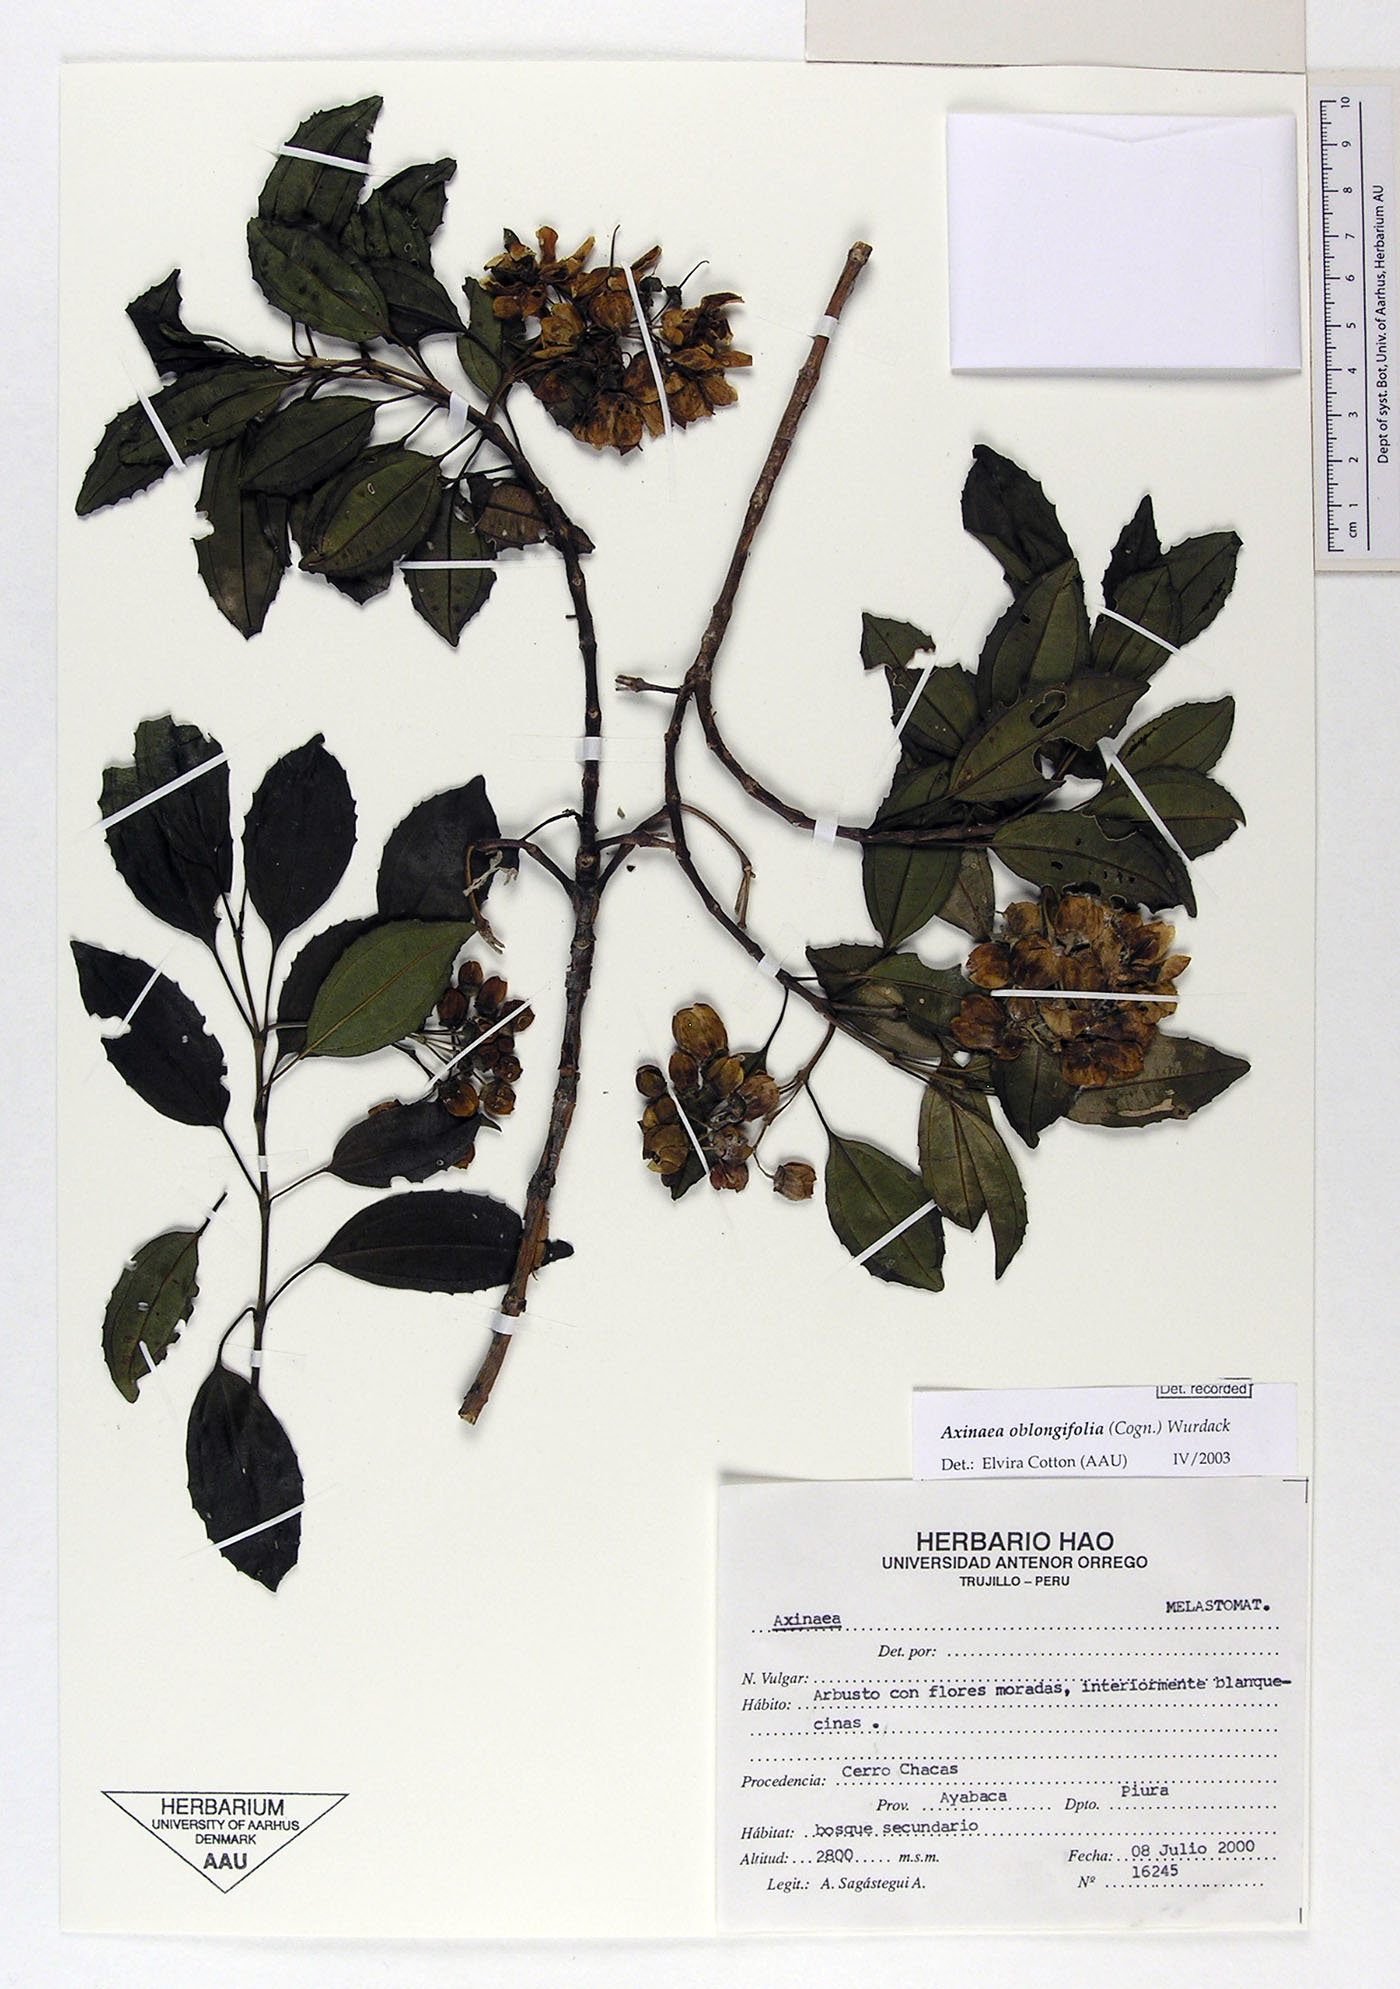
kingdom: Plantae
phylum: Tracheophyta
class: Magnoliopsida
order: Myrtales
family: Melastomataceae
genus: Axinaea
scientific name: Axinaea oblongifolia
